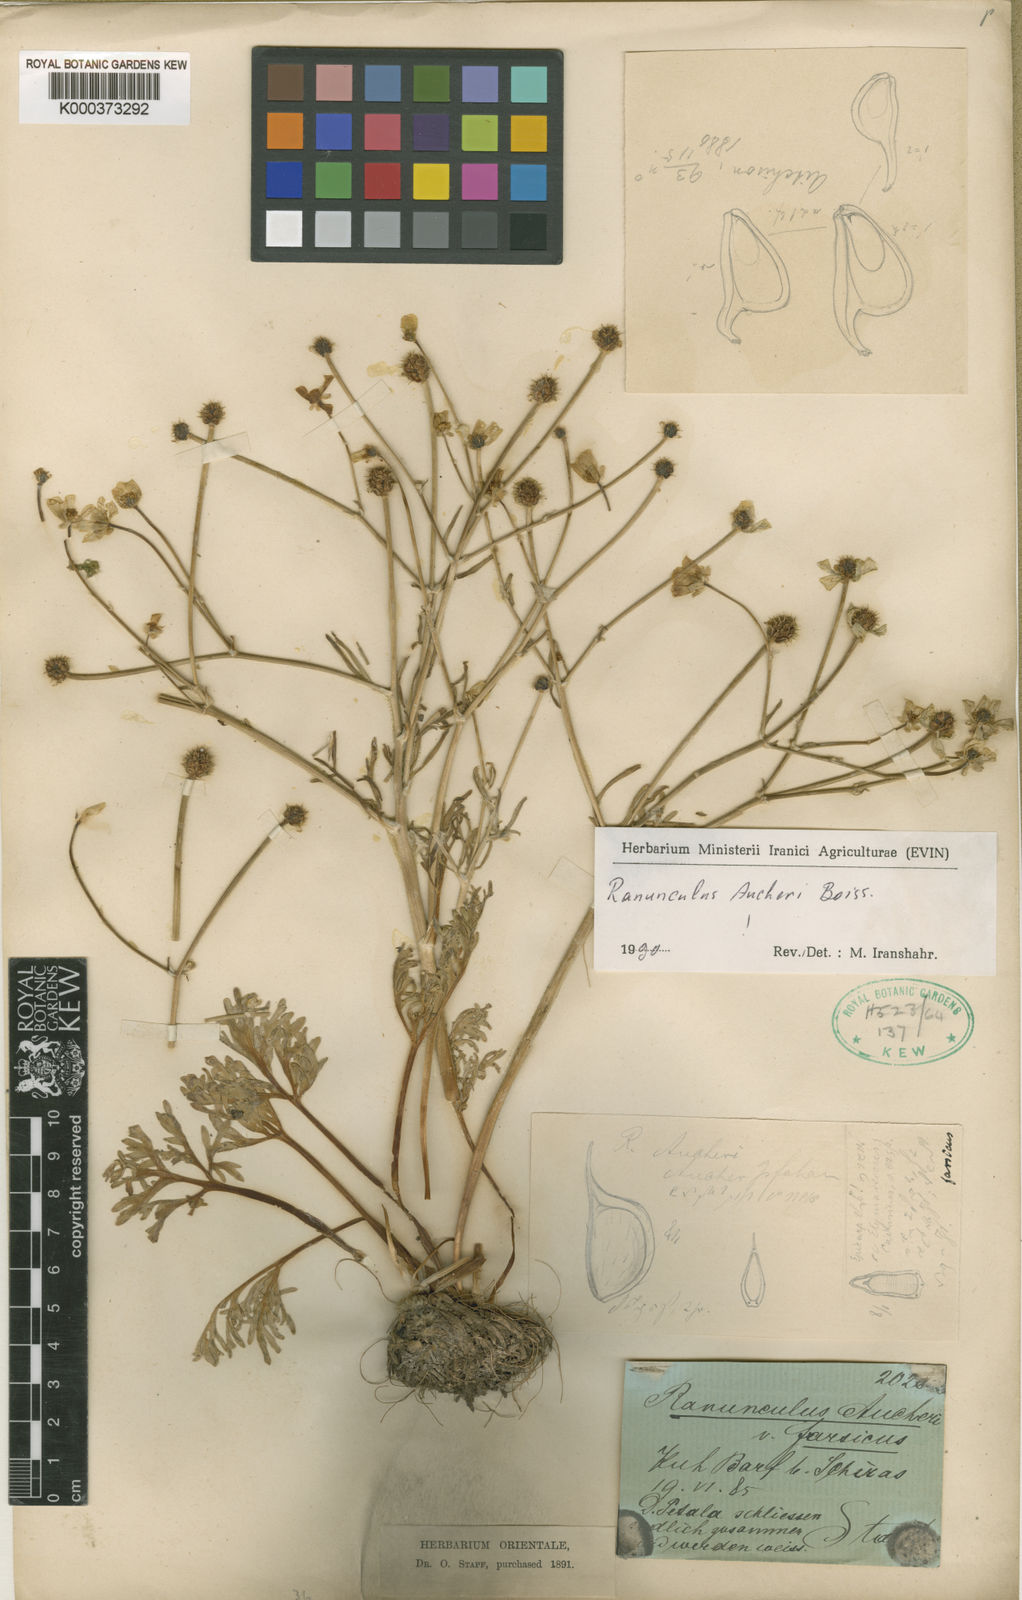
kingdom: Plantae
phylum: Tracheophyta
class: Magnoliopsida
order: Ranunculales
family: Ranunculaceae
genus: Ranunculus
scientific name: Ranunculus aucheri
